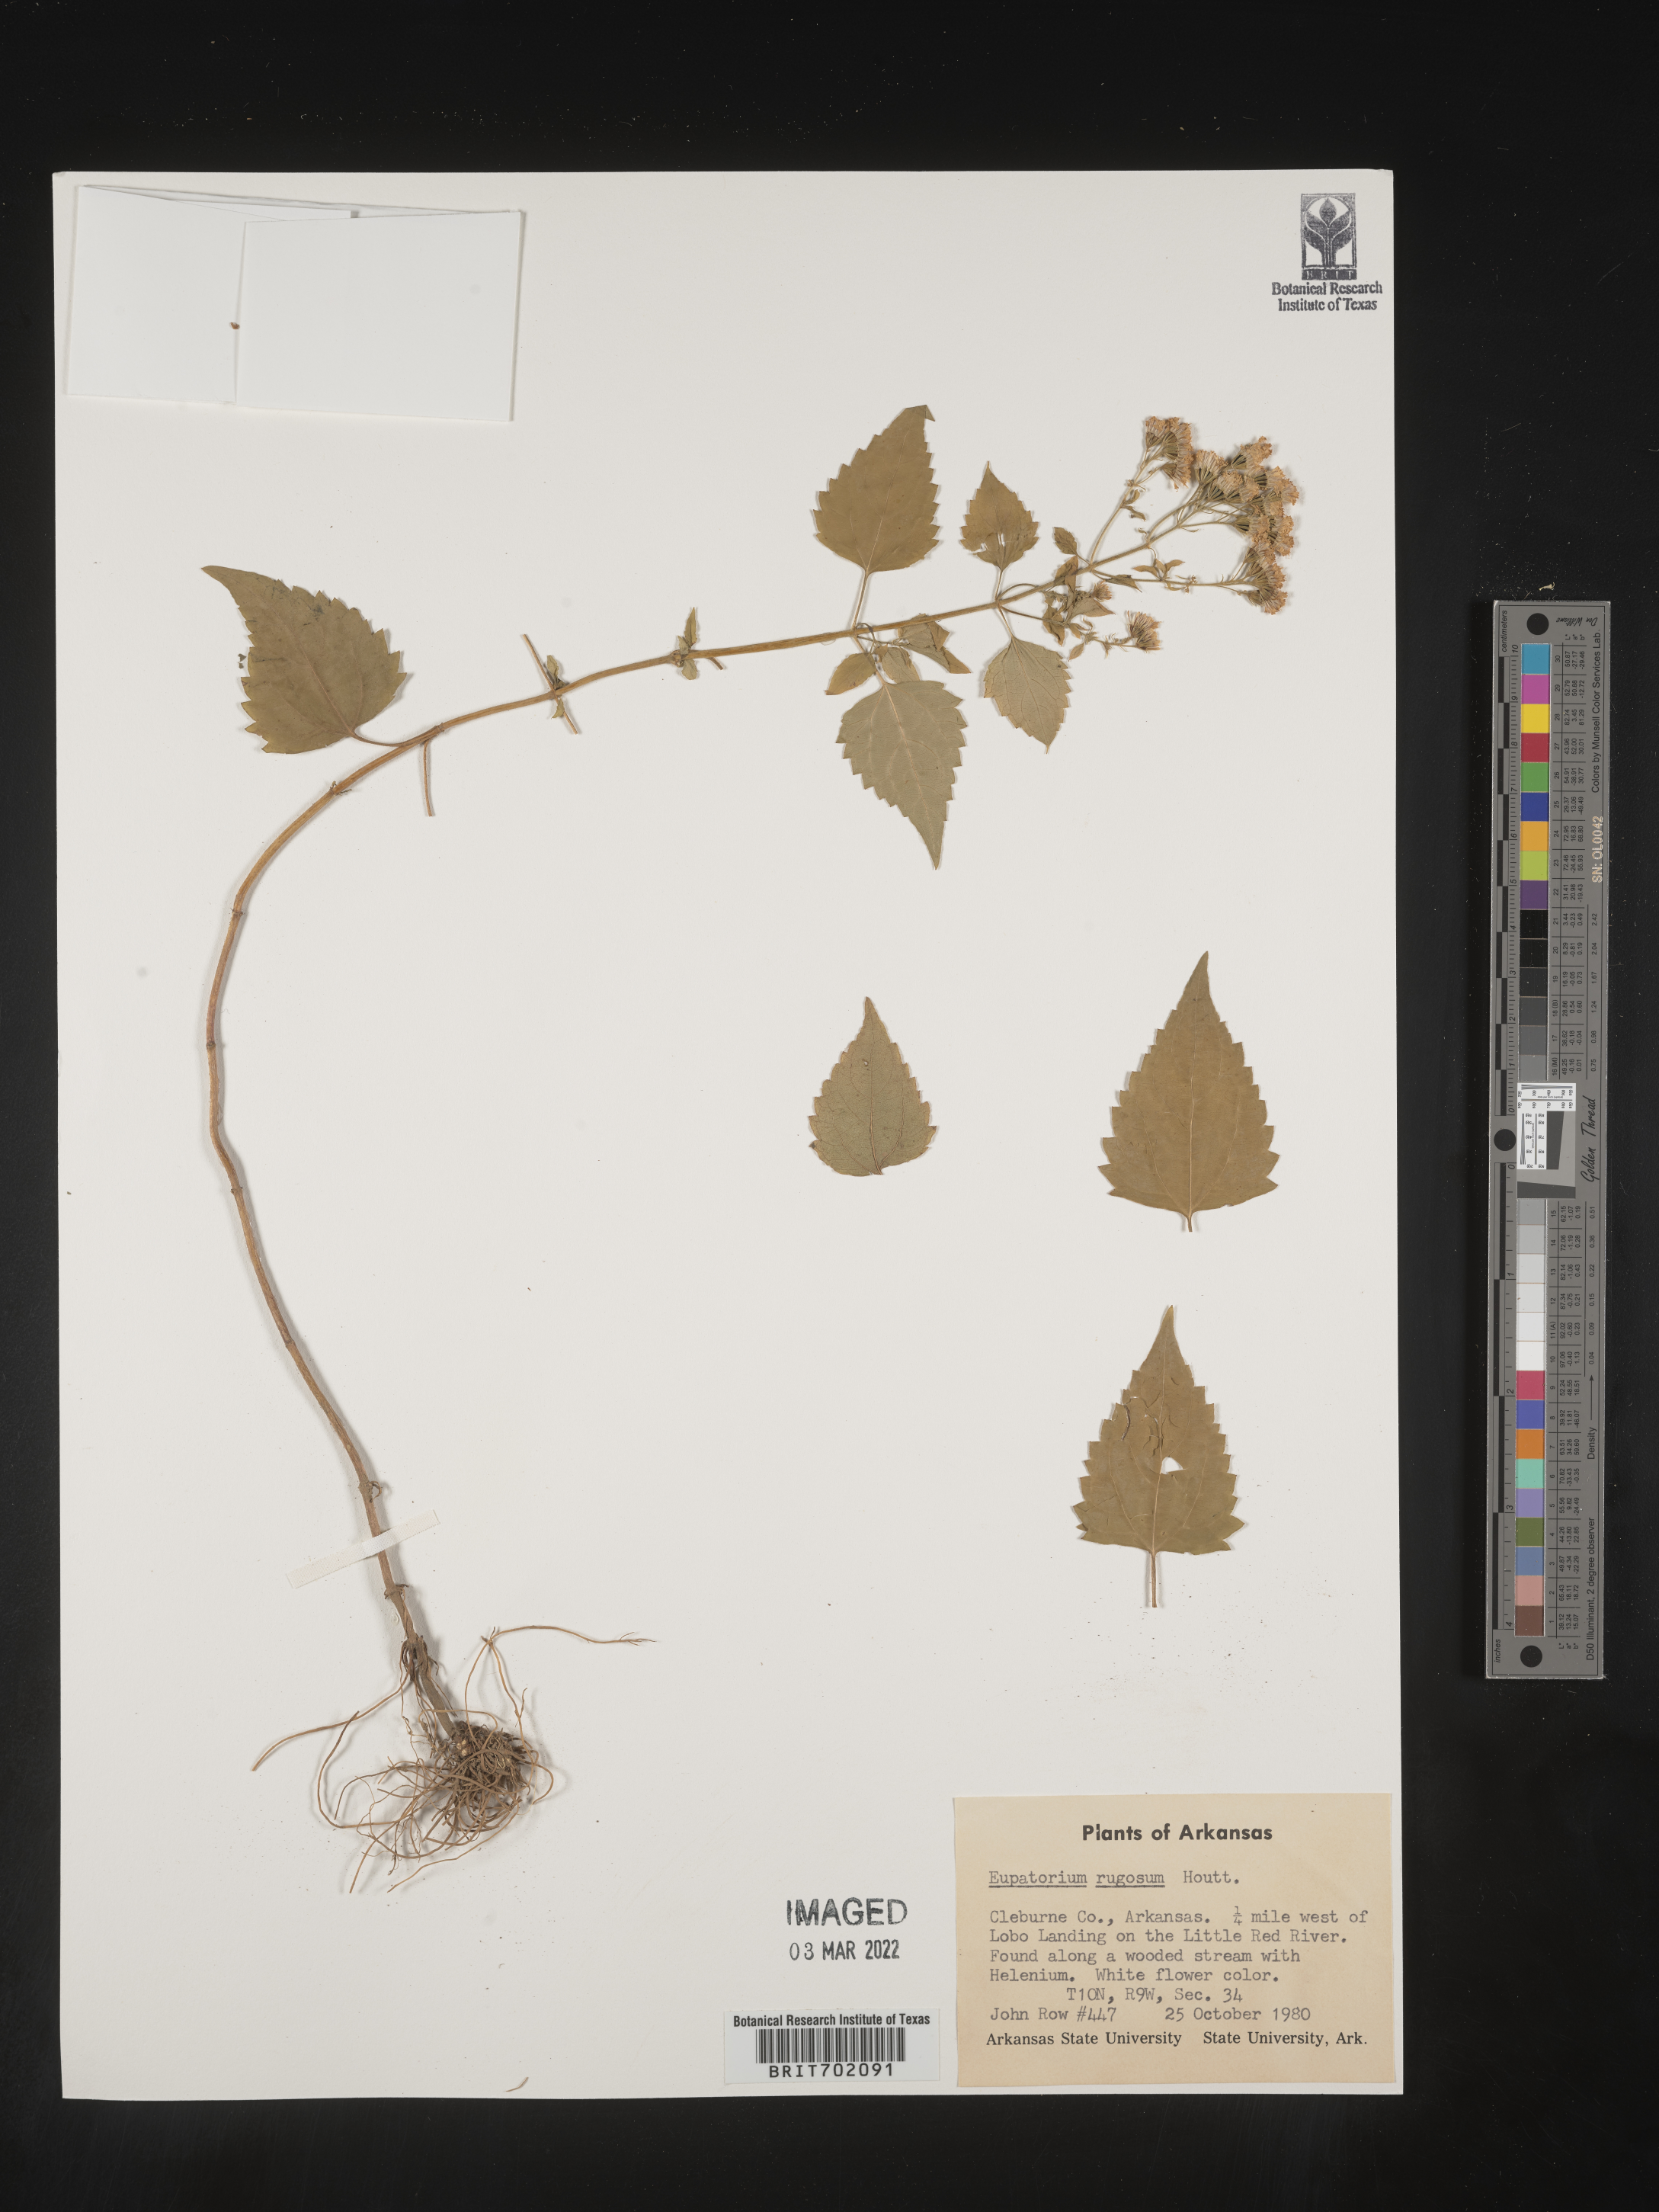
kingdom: Plantae
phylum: Tracheophyta
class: Magnoliopsida
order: Asterales
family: Asteraceae
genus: Cronquistianthus
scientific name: Cronquistianthus bulliferus
